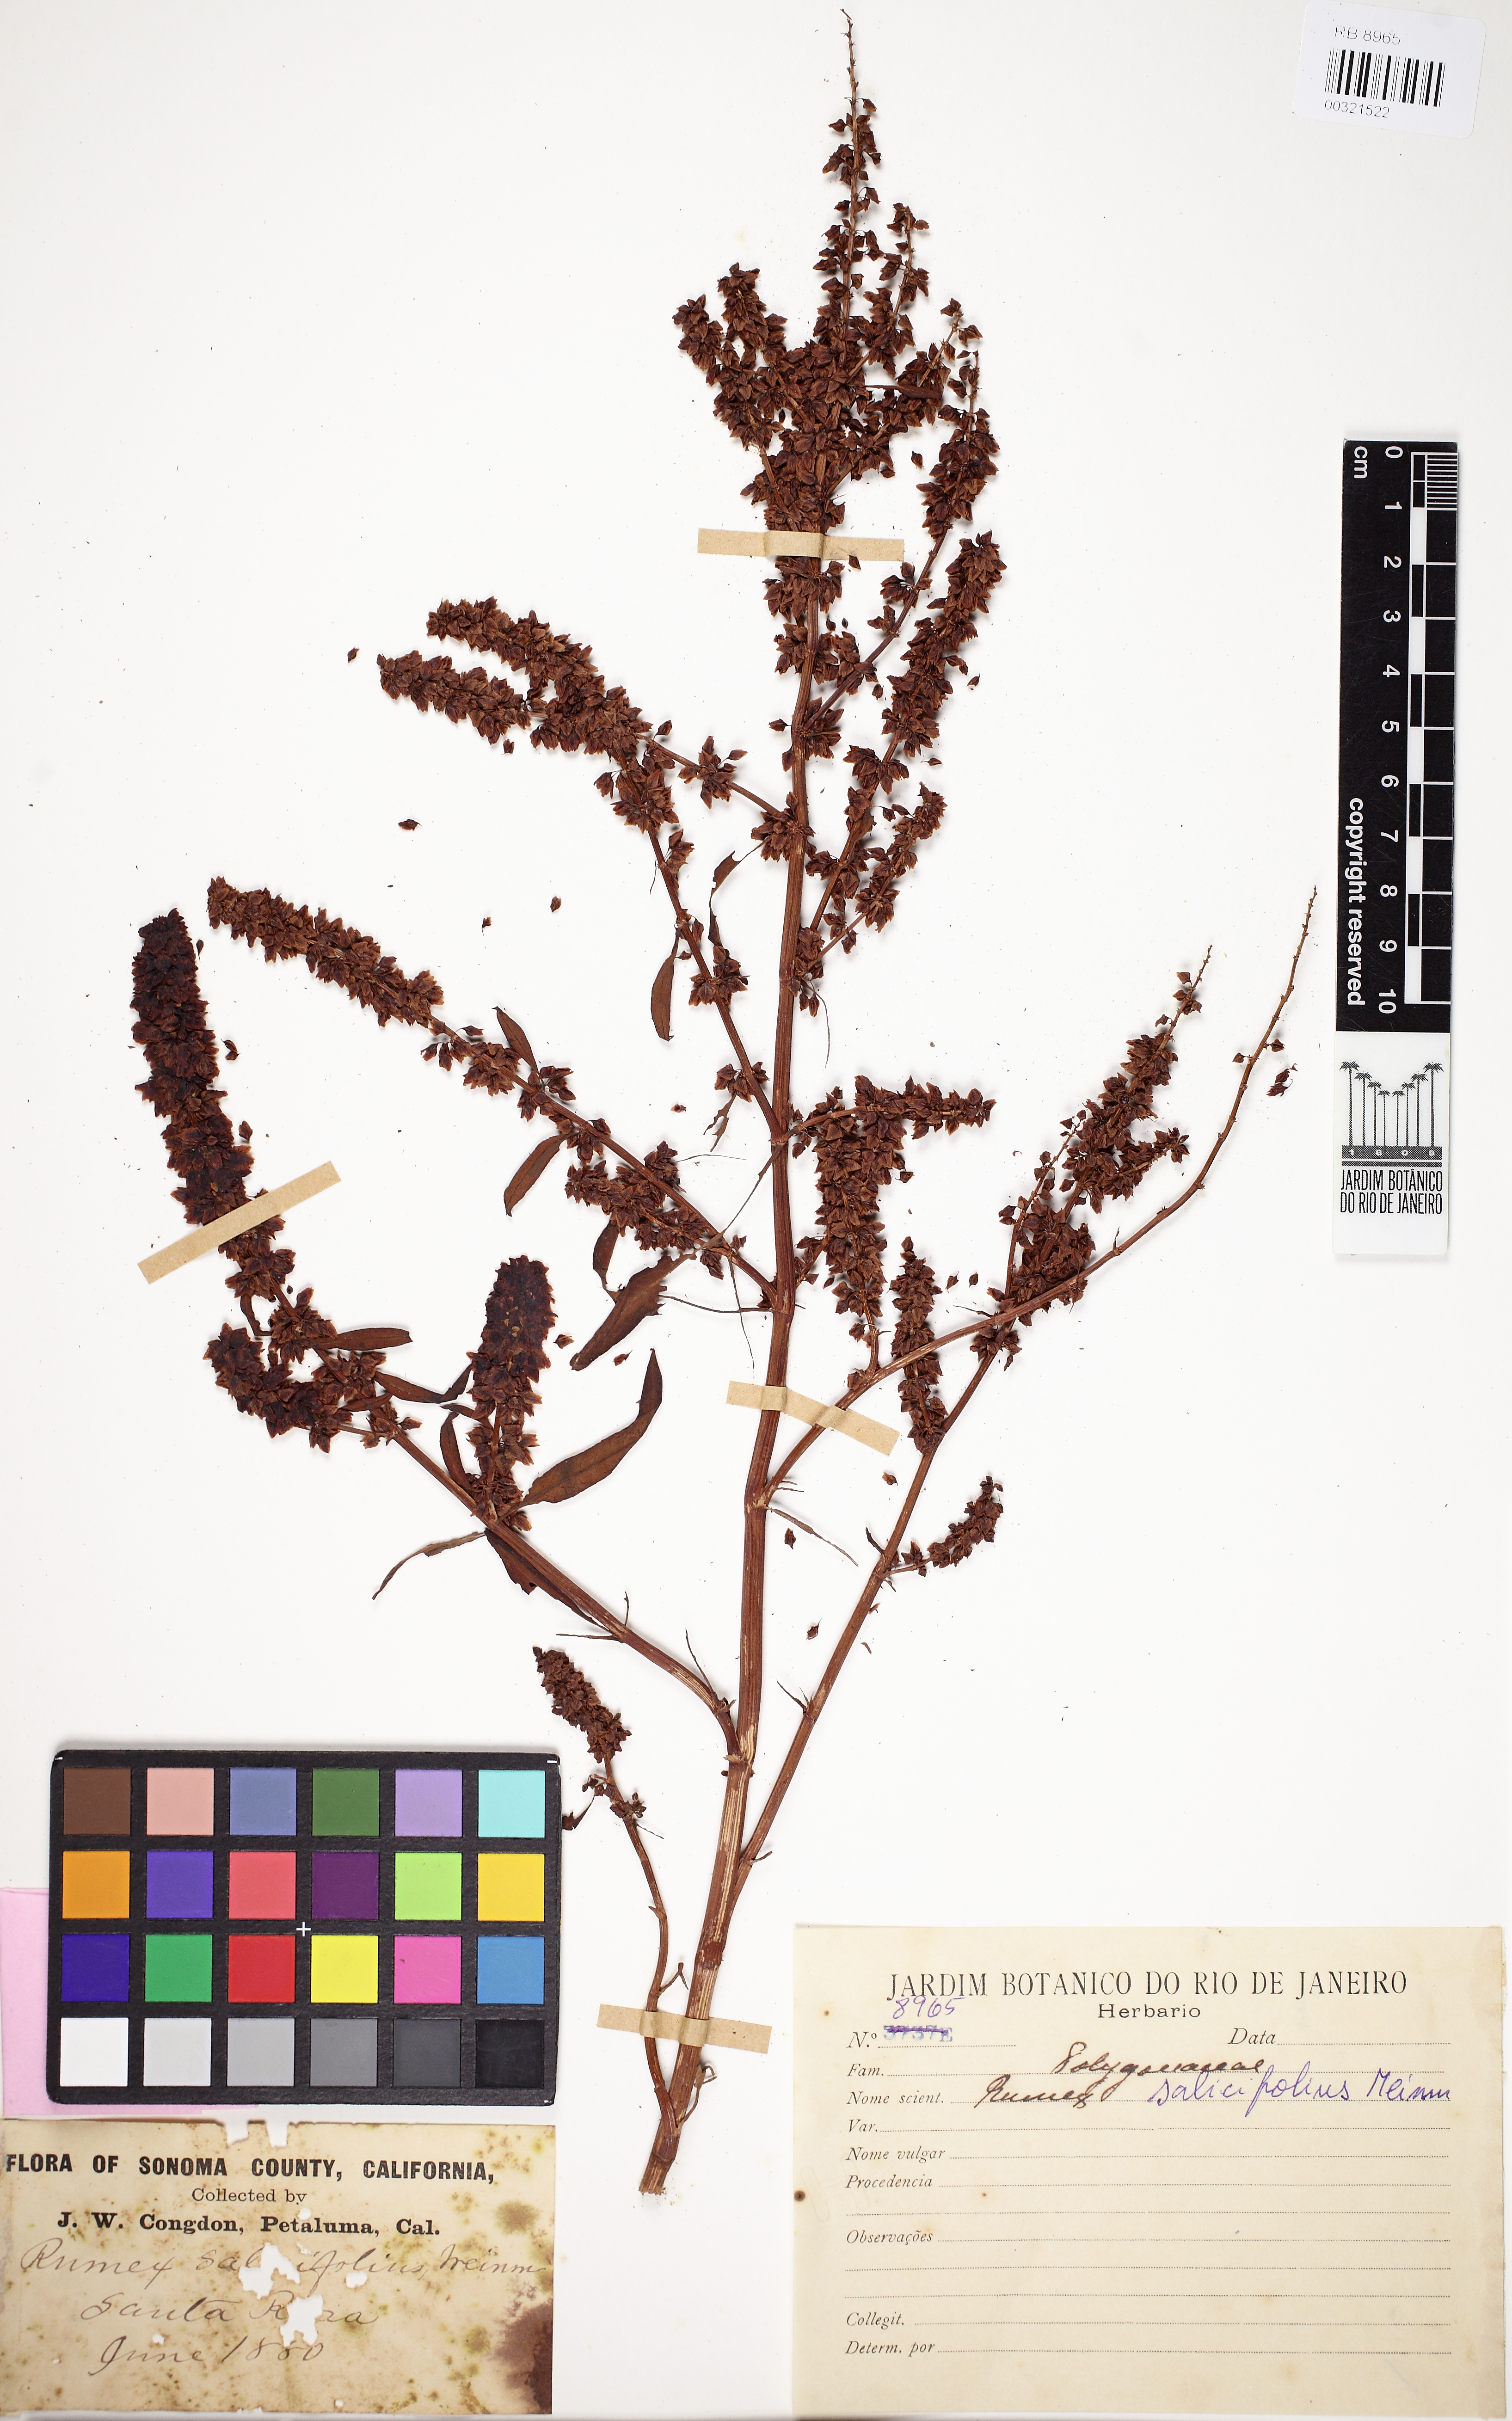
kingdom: Plantae
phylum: Tracheophyta
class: Magnoliopsida
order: Caryophyllales
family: Polygonaceae
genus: Rumex
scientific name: Rumex salicifolius
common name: Willow-leaved dock
